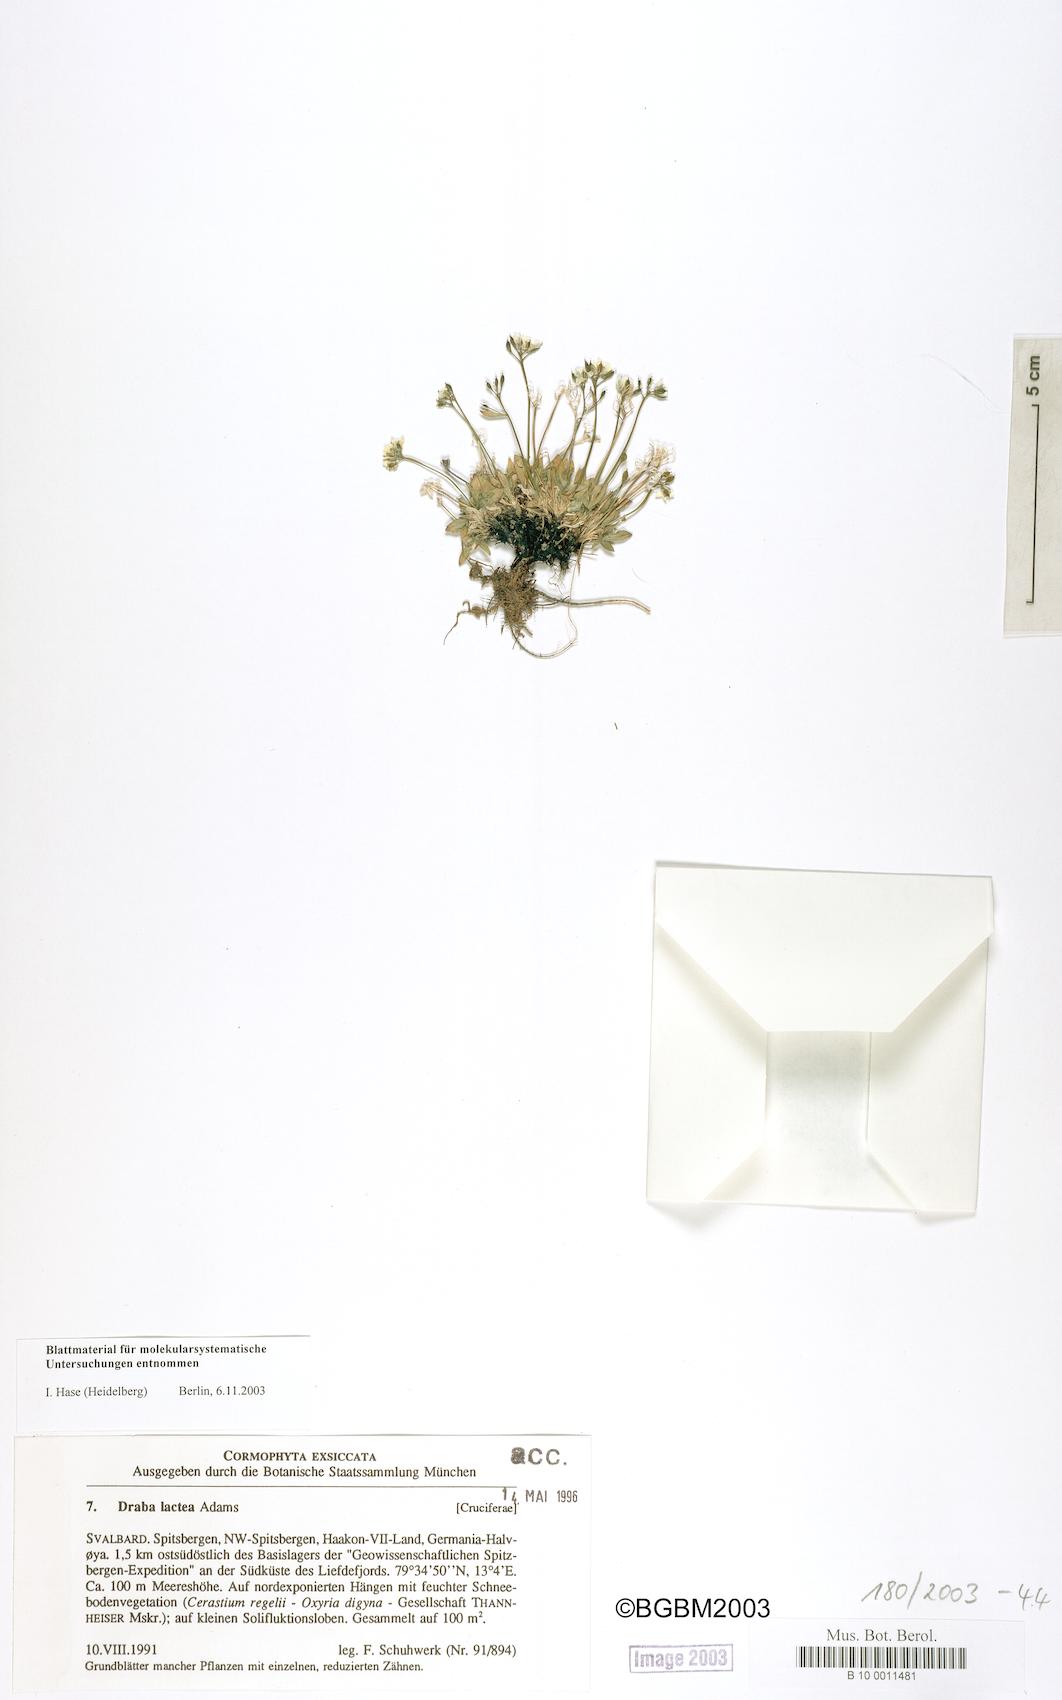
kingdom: Plantae
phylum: Tracheophyta
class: Magnoliopsida
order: Brassicales
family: Brassicaceae
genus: Draba
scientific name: Draba lactea
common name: Milky draba
